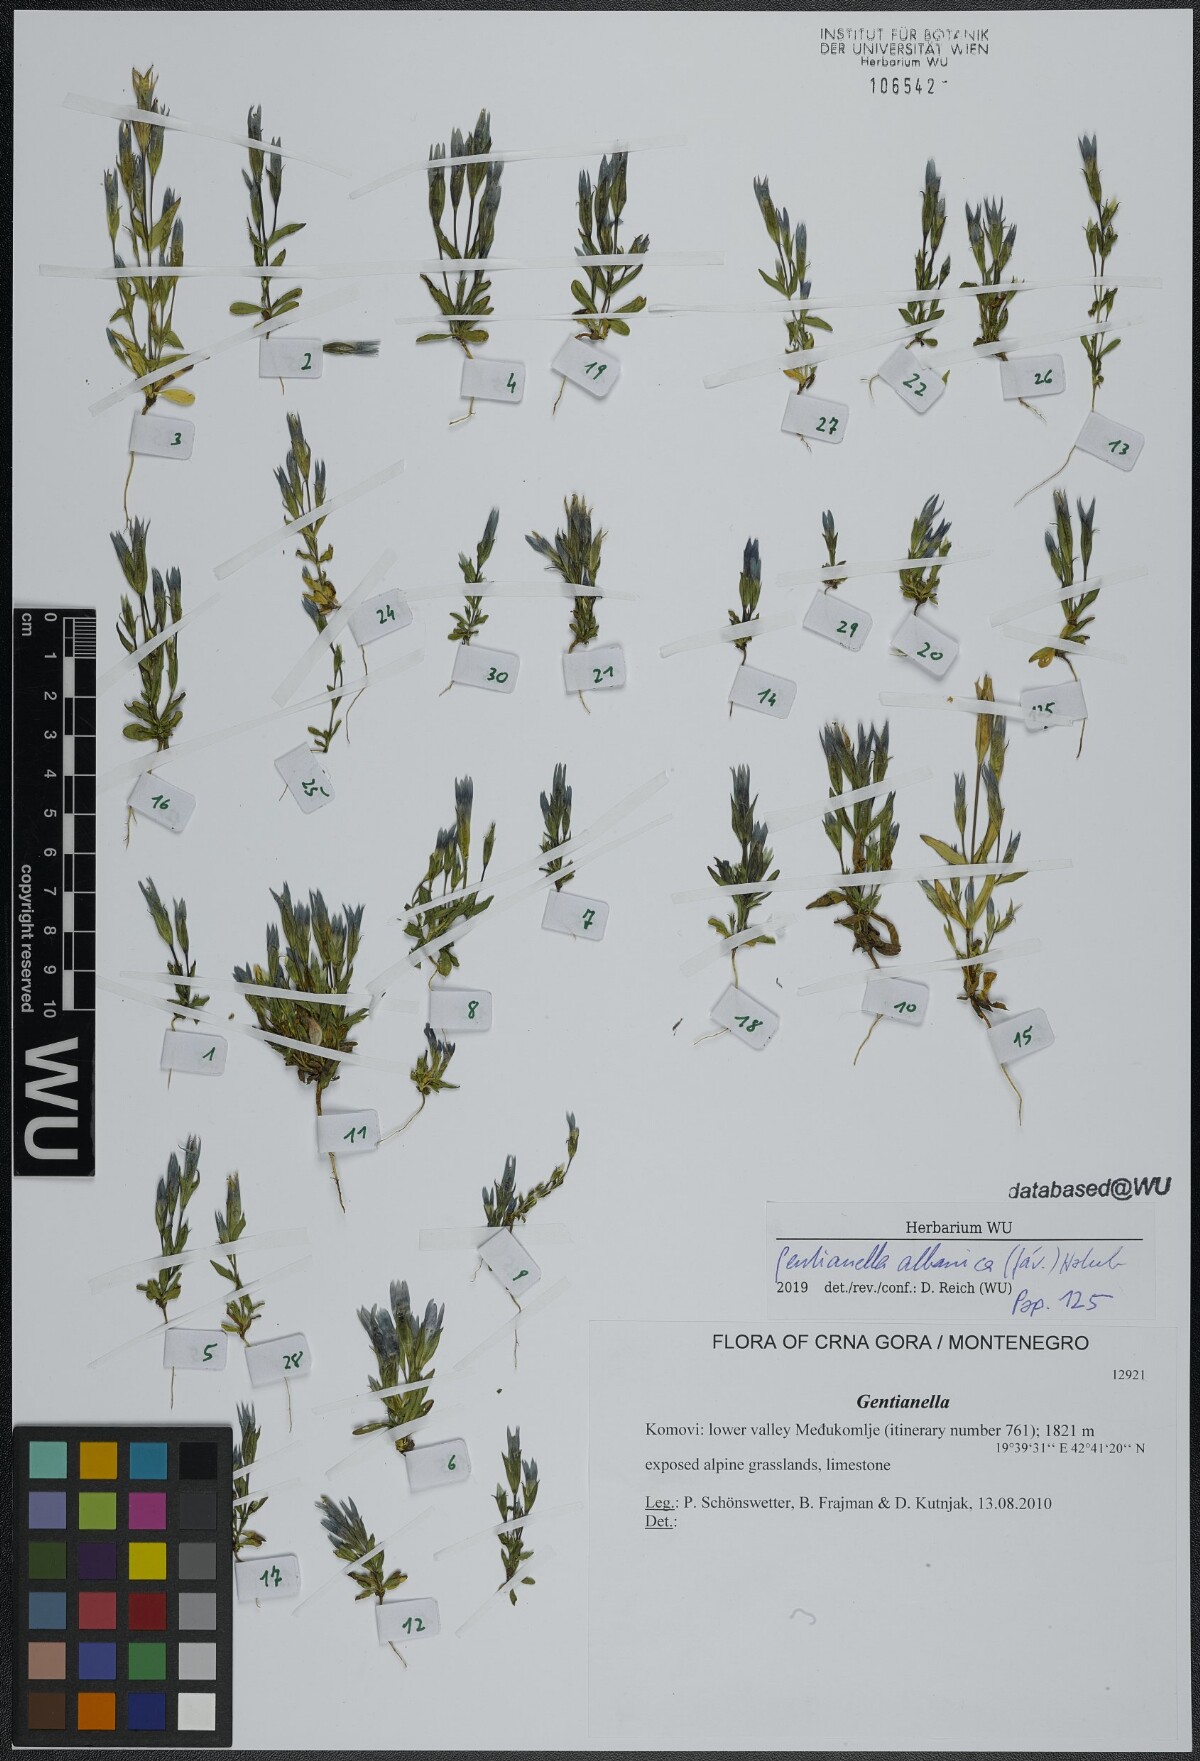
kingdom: Plantae
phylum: Tracheophyta
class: Magnoliopsida
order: Gentianales
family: Gentianaceae
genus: Gentianella
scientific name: Gentianella albanica
